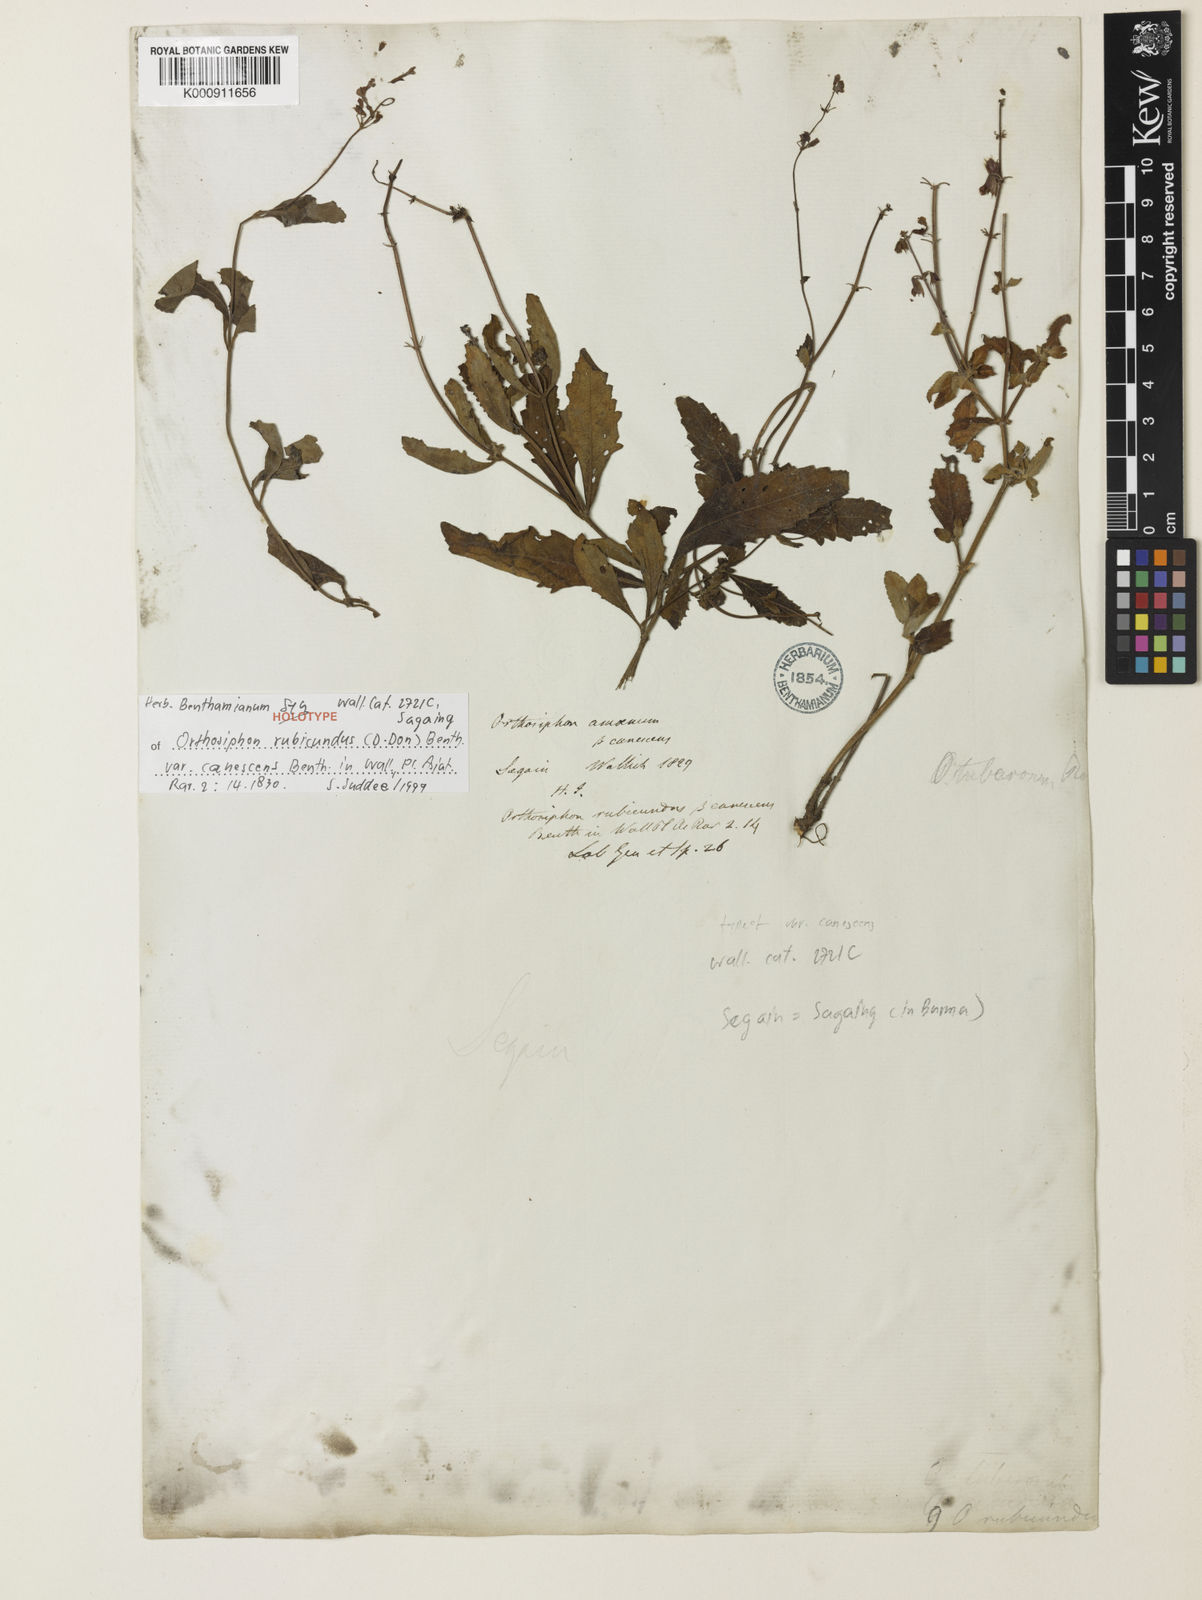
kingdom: Plantae
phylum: Tracheophyta
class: Magnoliopsida
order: Lamiales
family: Lamiaceae
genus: Orthosiphon
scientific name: Orthosiphon rubicundus
